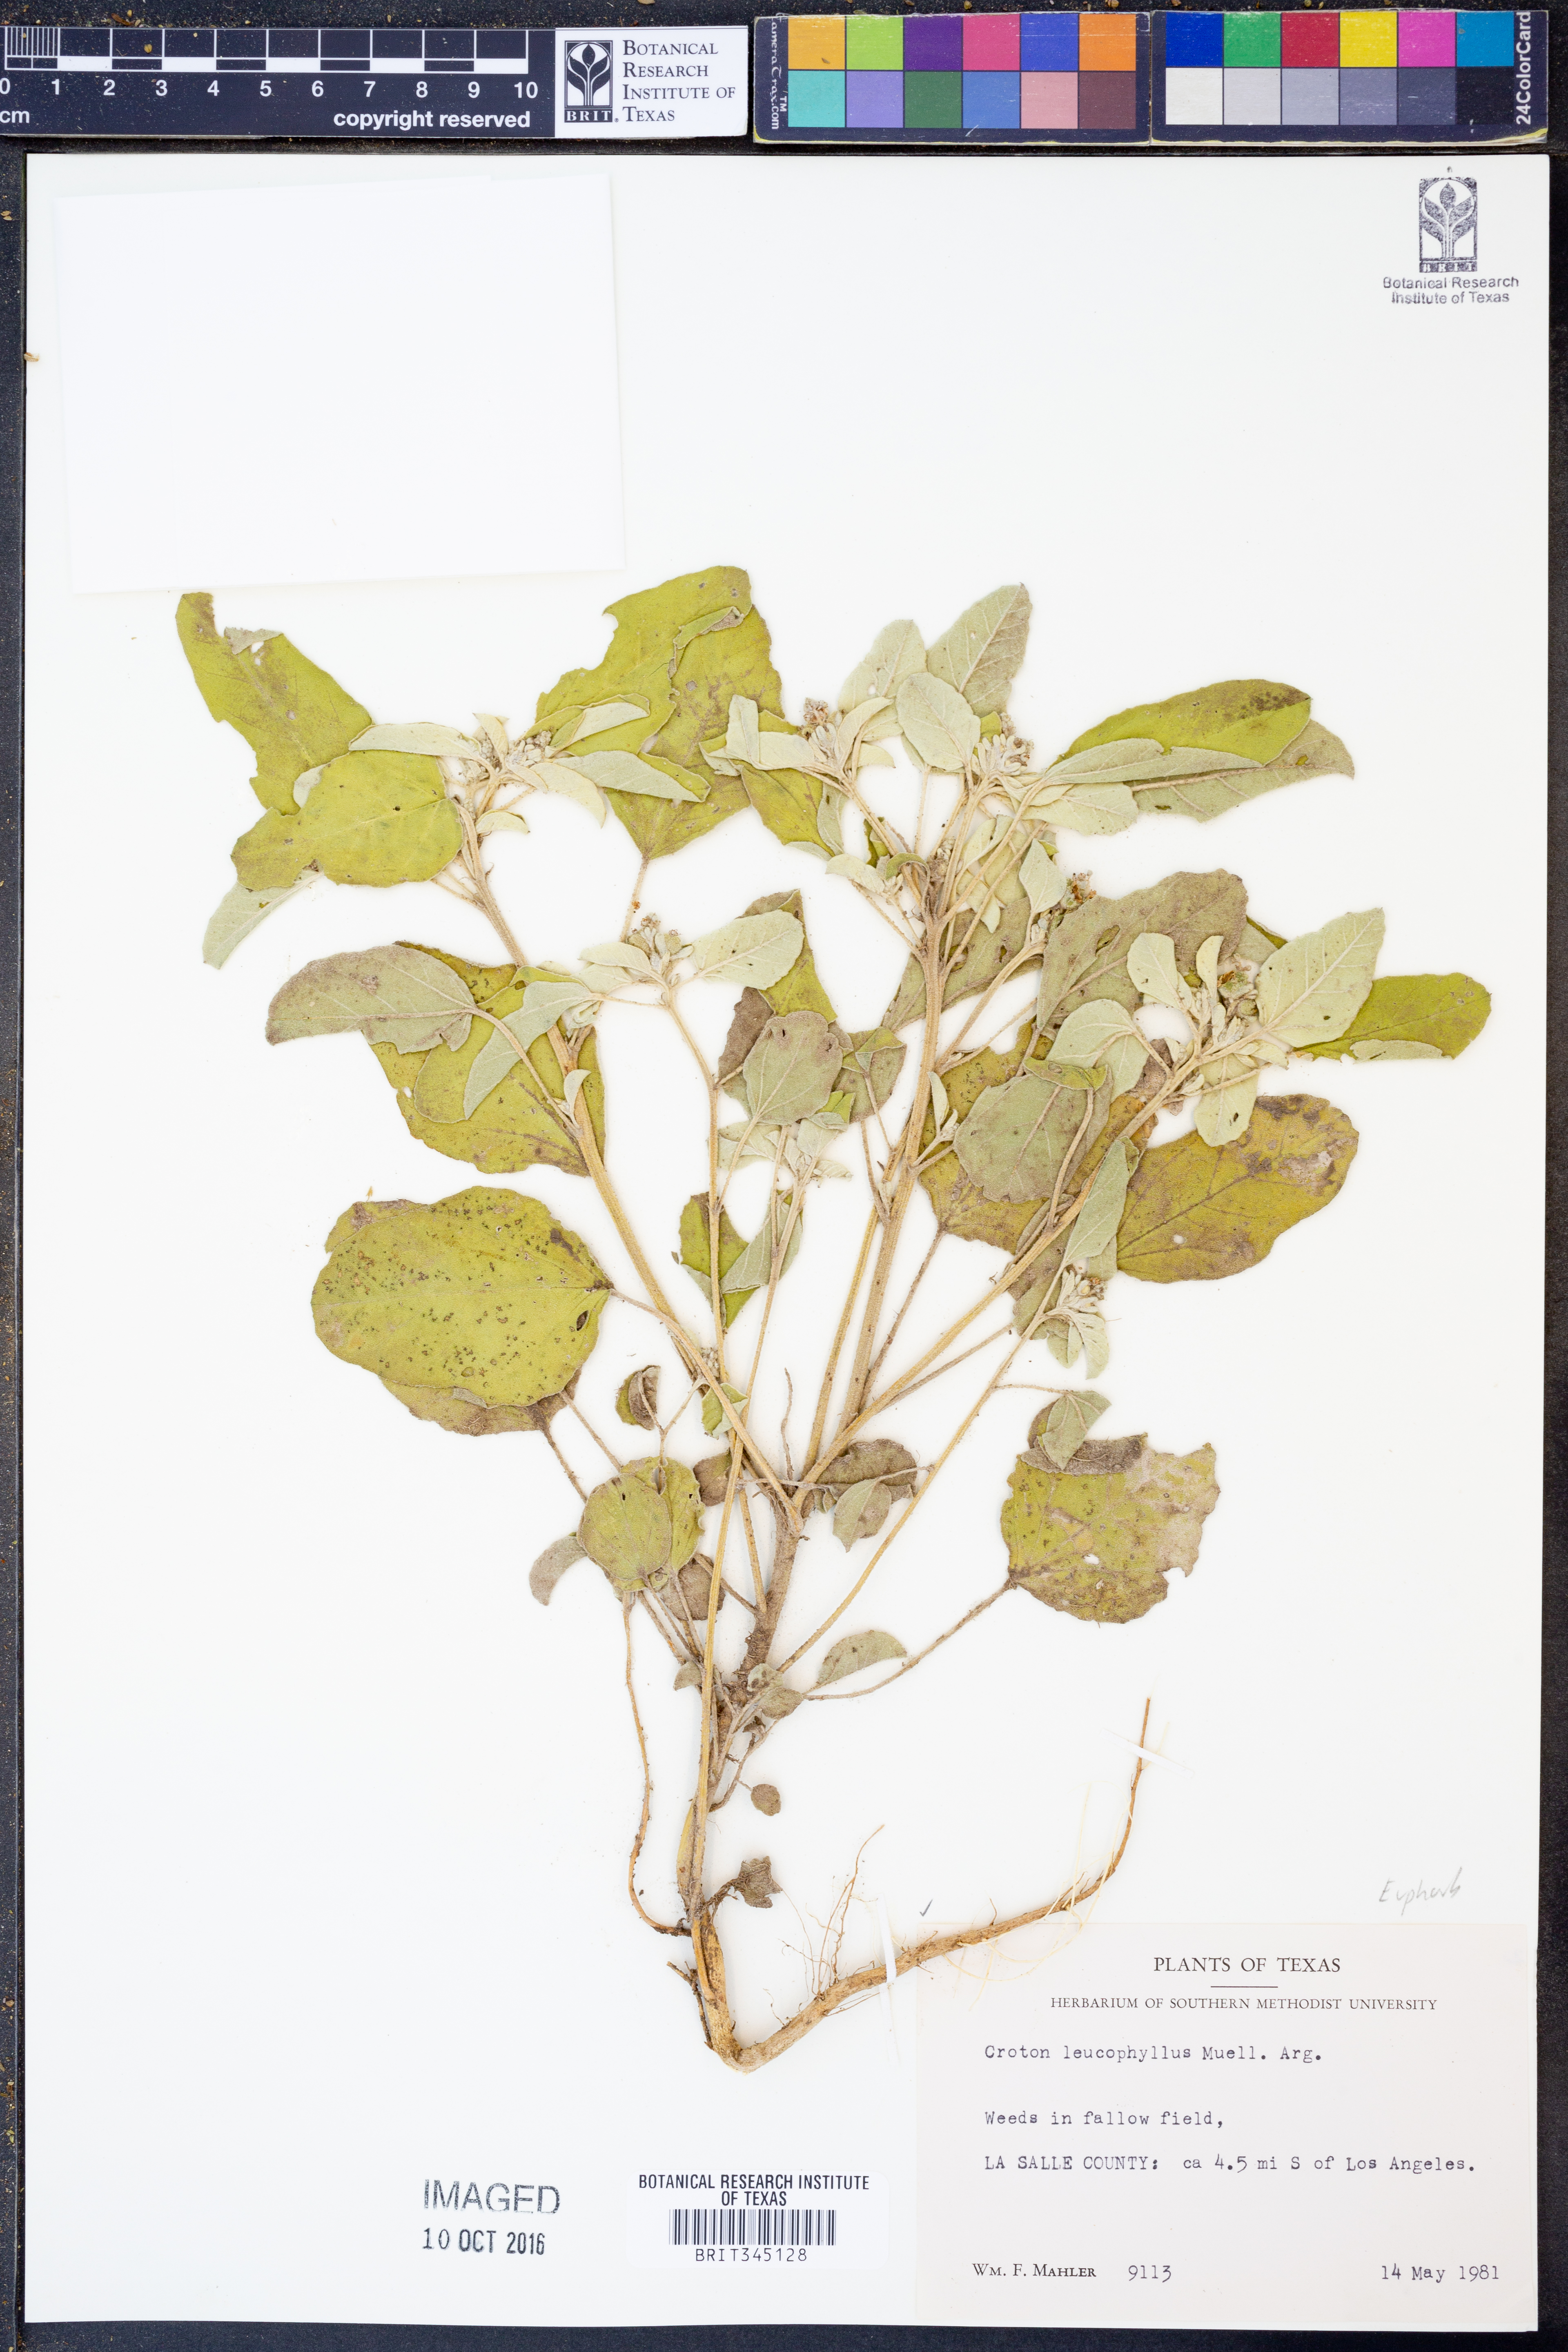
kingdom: Plantae
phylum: Tracheophyta
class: Magnoliopsida
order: Malpighiales
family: Euphorbiaceae
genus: Croton
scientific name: Croton leucophyllus
